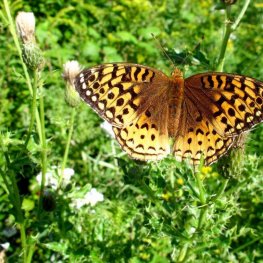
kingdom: Animalia
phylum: Arthropoda
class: Insecta
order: Lepidoptera
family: Nymphalidae
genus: Speyeria
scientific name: Speyeria cybele
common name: Great Spangled Fritillary
